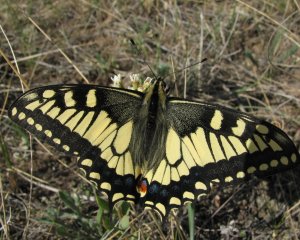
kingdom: Animalia
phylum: Arthropoda
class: Insecta
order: Lepidoptera
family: Papilionidae
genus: Papilio
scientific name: Papilio machaon
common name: Old World Swallowtail
